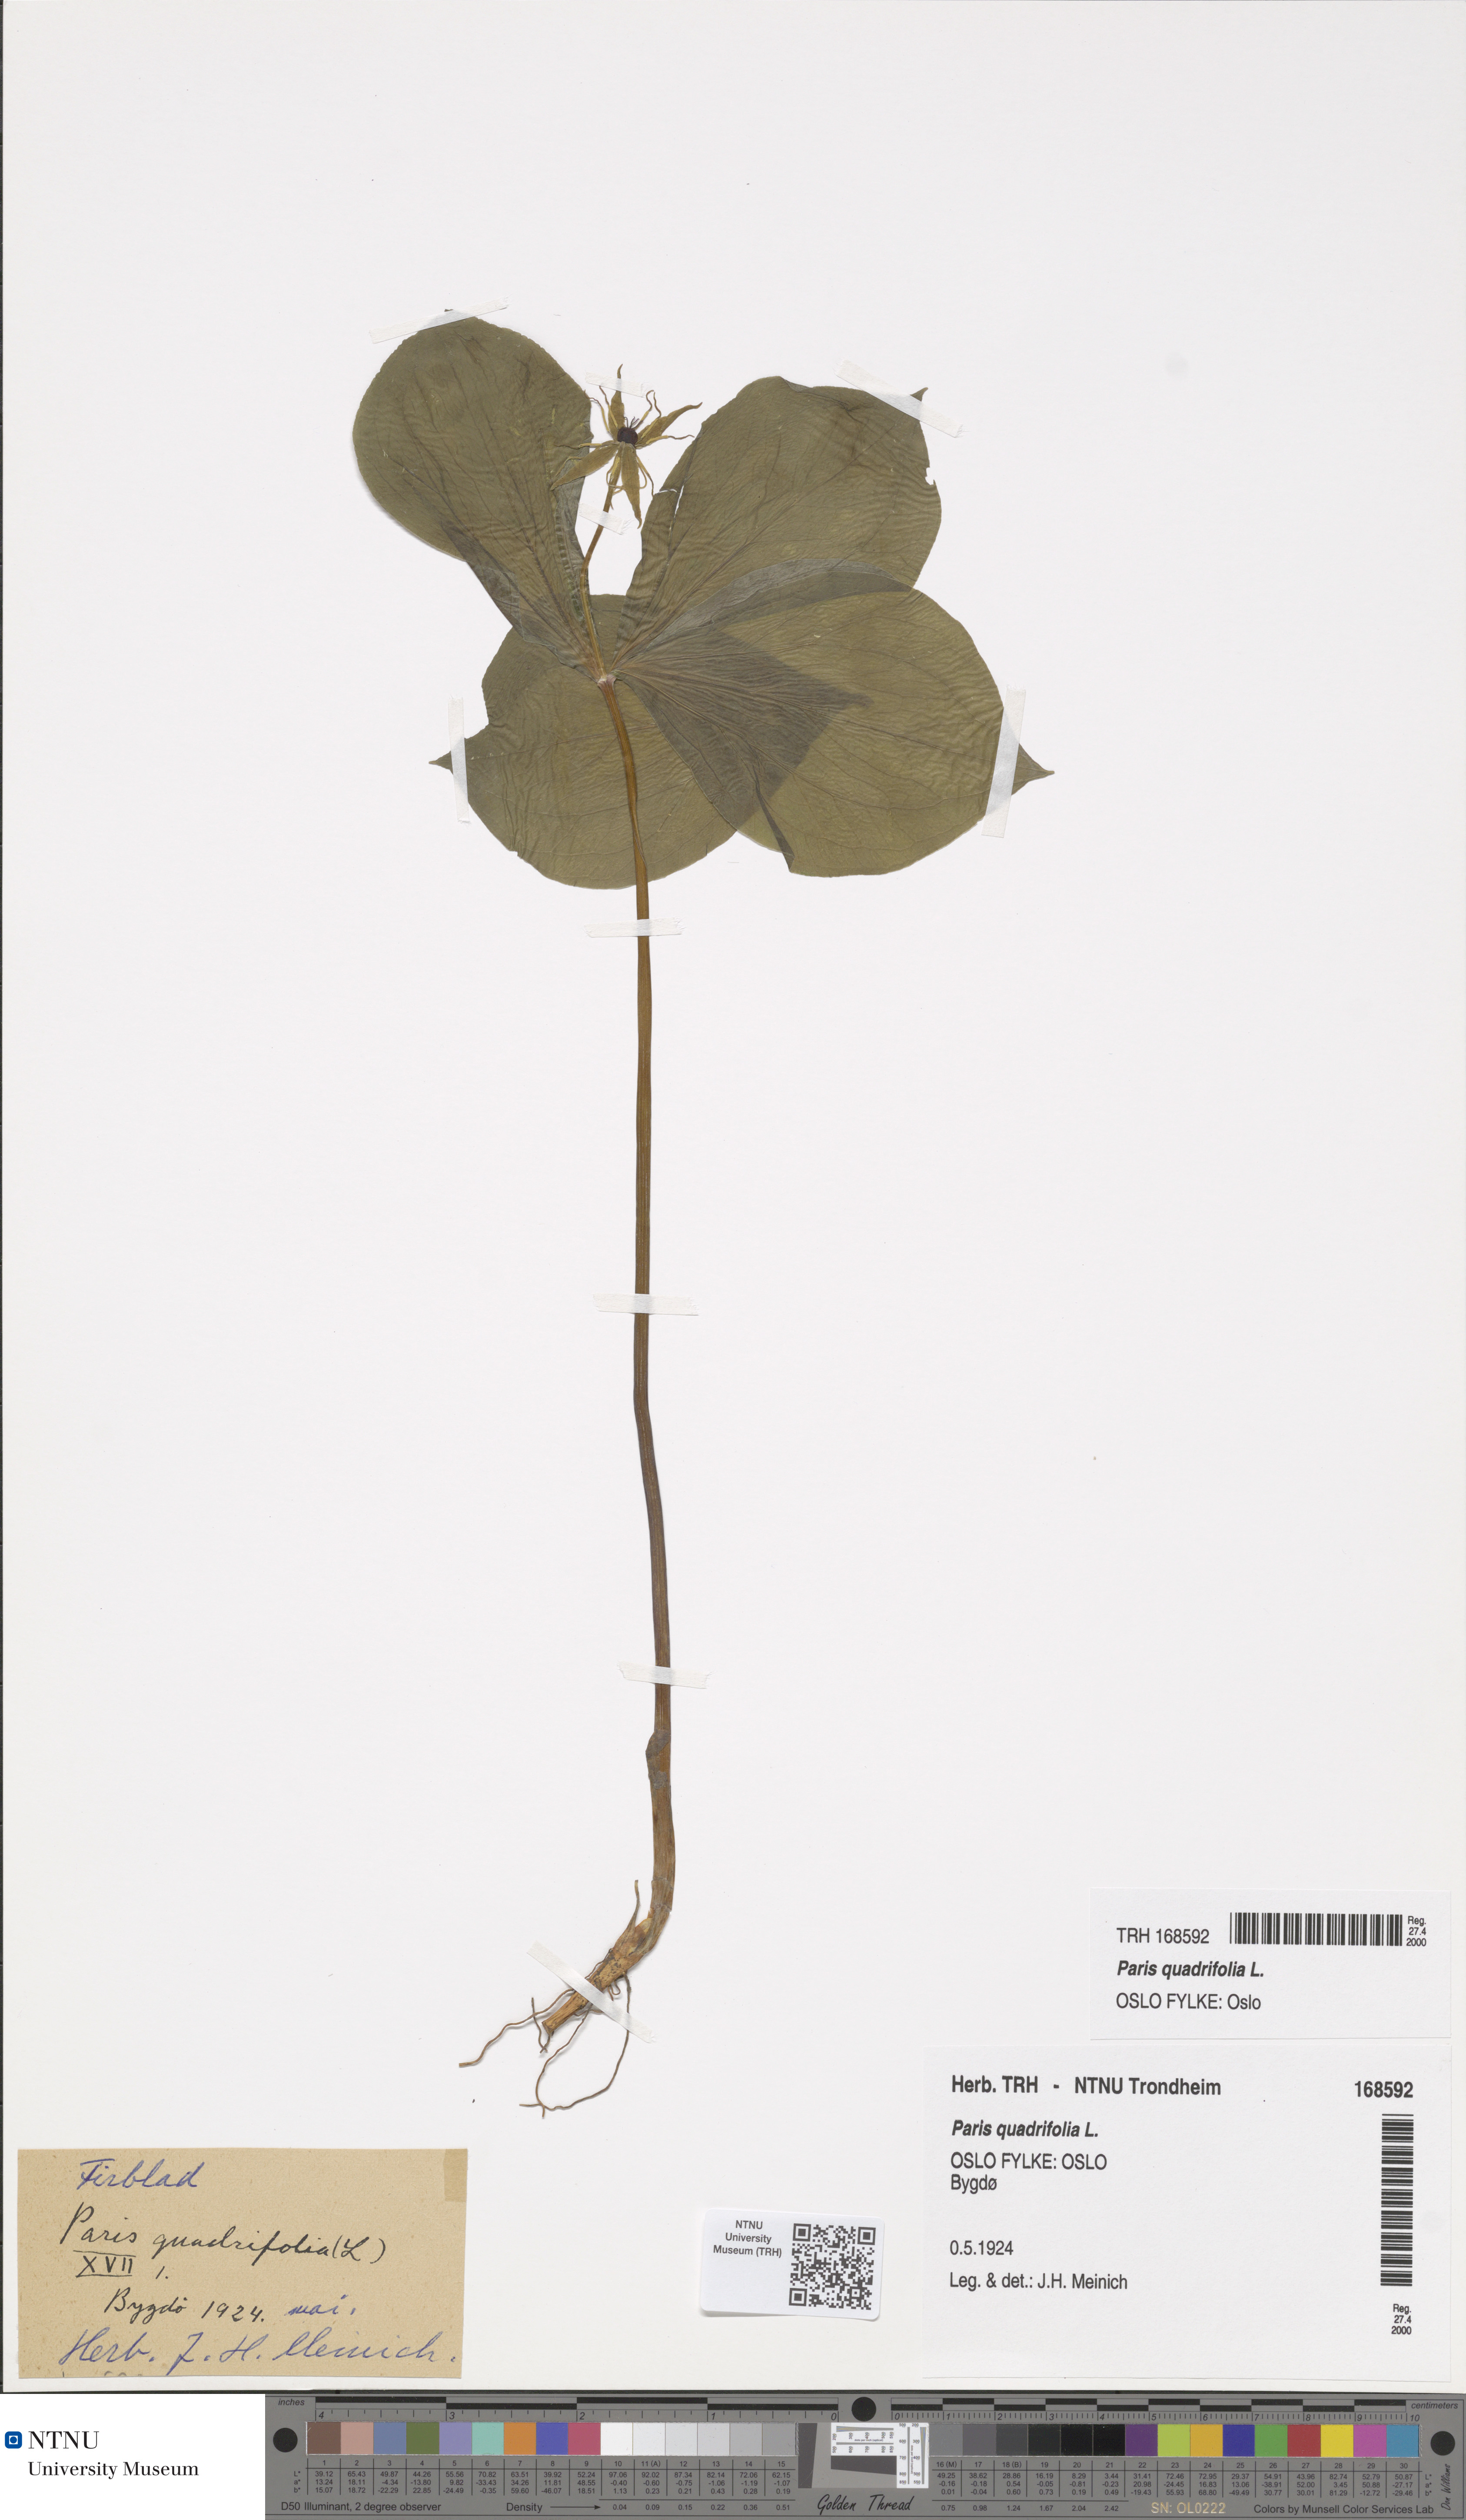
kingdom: Plantae
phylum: Tracheophyta
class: Liliopsida
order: Liliales
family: Melanthiaceae
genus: Paris
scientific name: Paris quadrifolia
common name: Herb-paris
